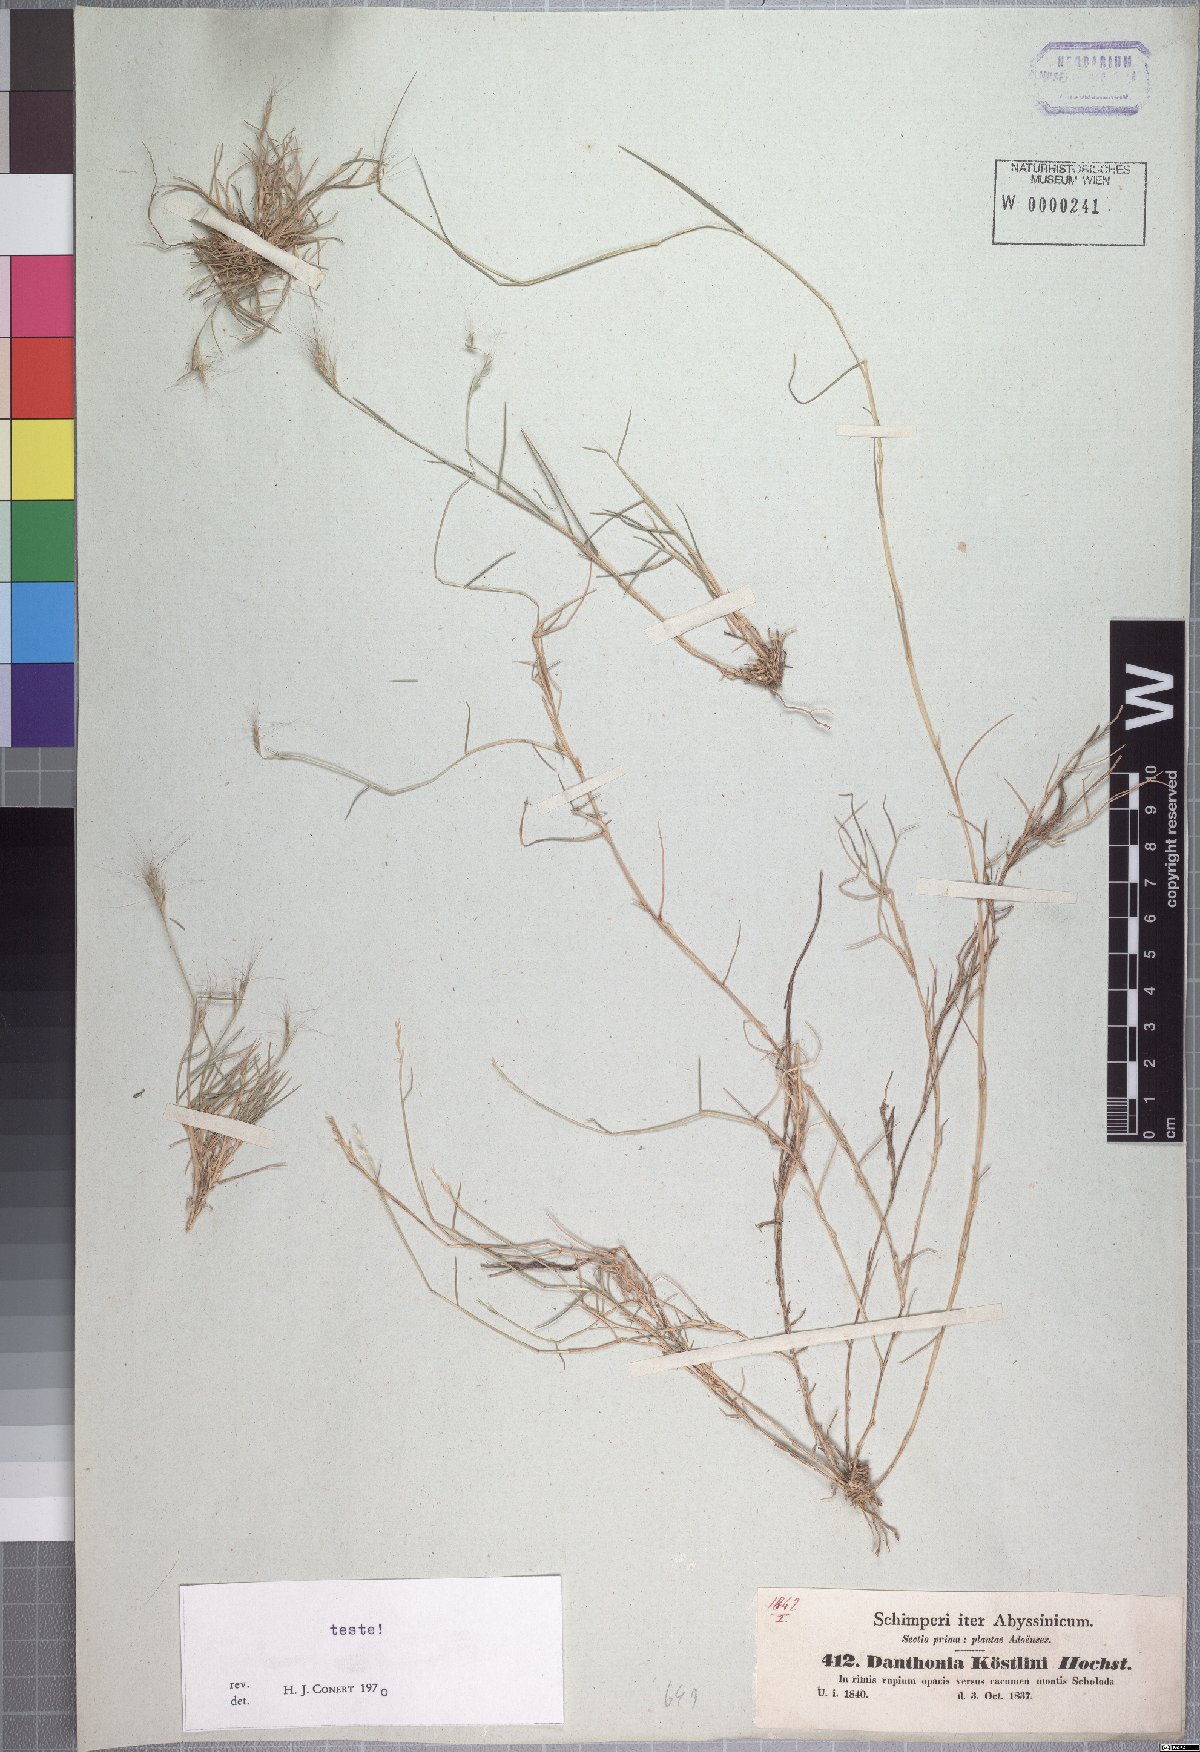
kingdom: Plantae
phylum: Tracheophyta
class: Liliopsida
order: Poales
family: Poaceae
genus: Phaenanthoecium
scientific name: Phaenanthoecium koestlinii
